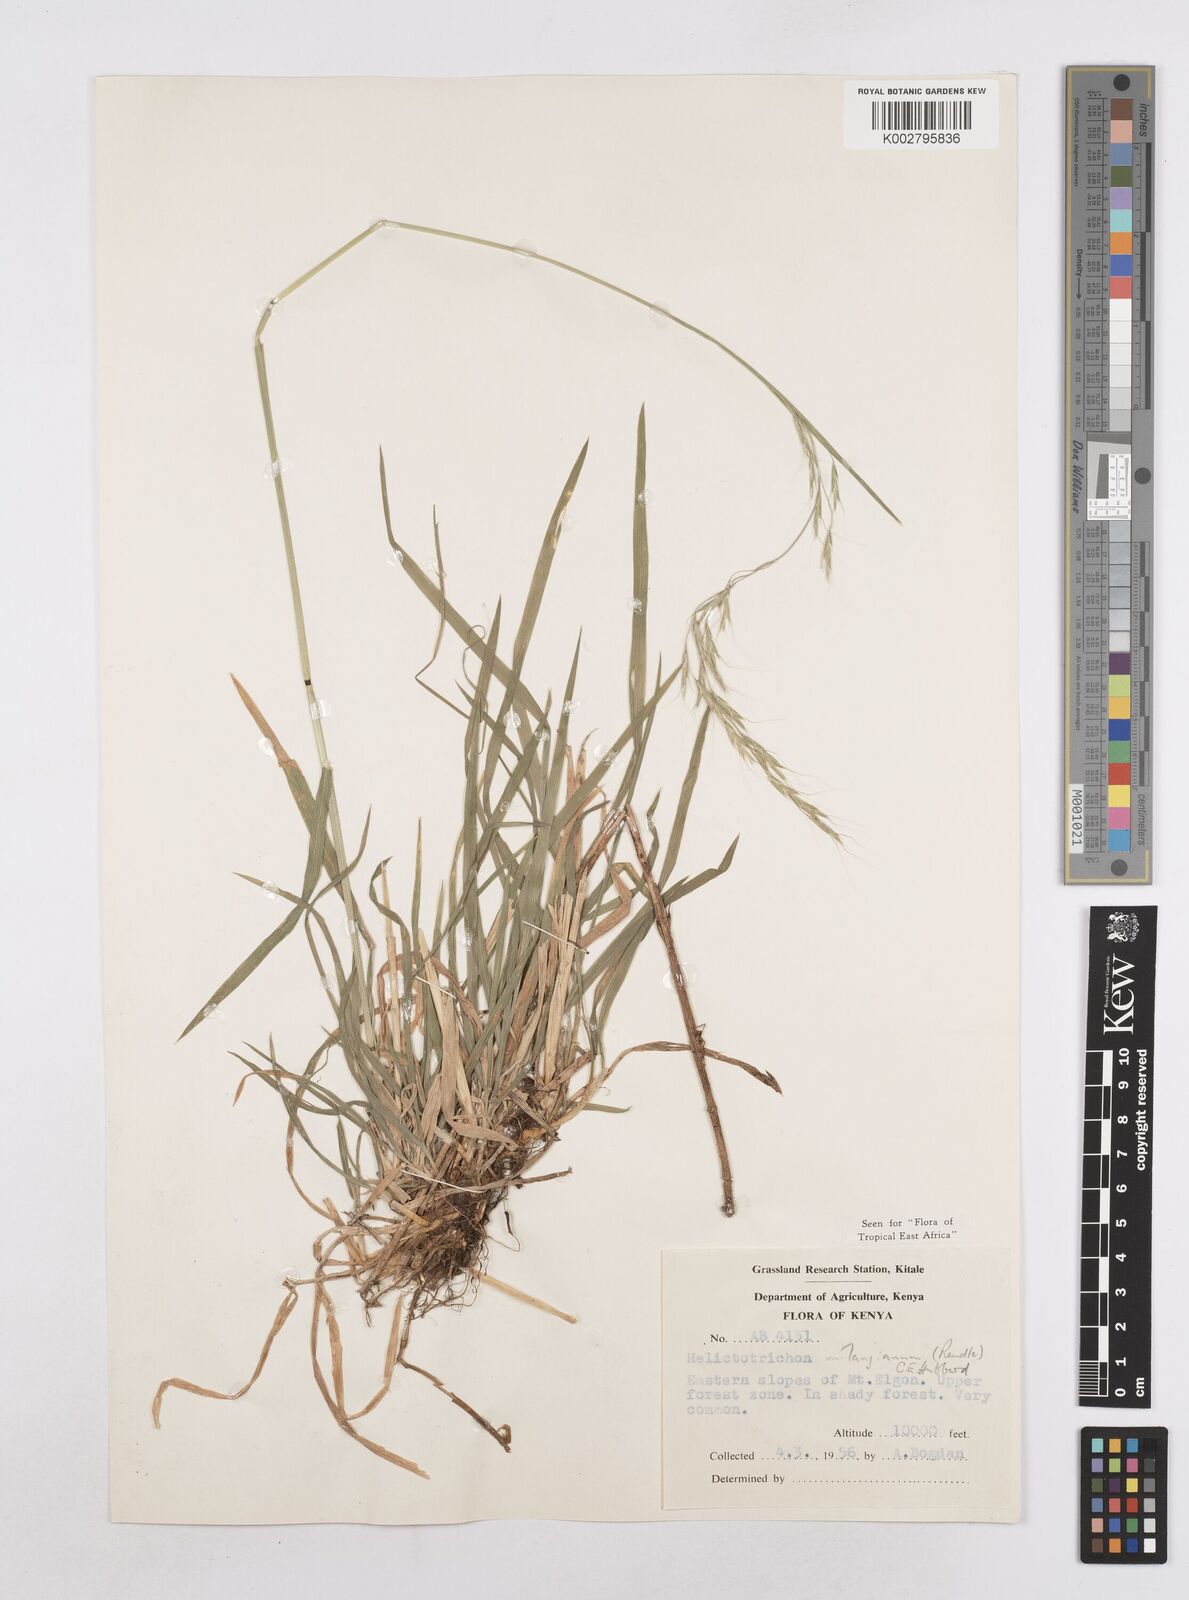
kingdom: Plantae
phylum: Tracheophyta
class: Liliopsida
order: Poales
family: Poaceae
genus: Trisetopsis
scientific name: Trisetopsis milanjiana
